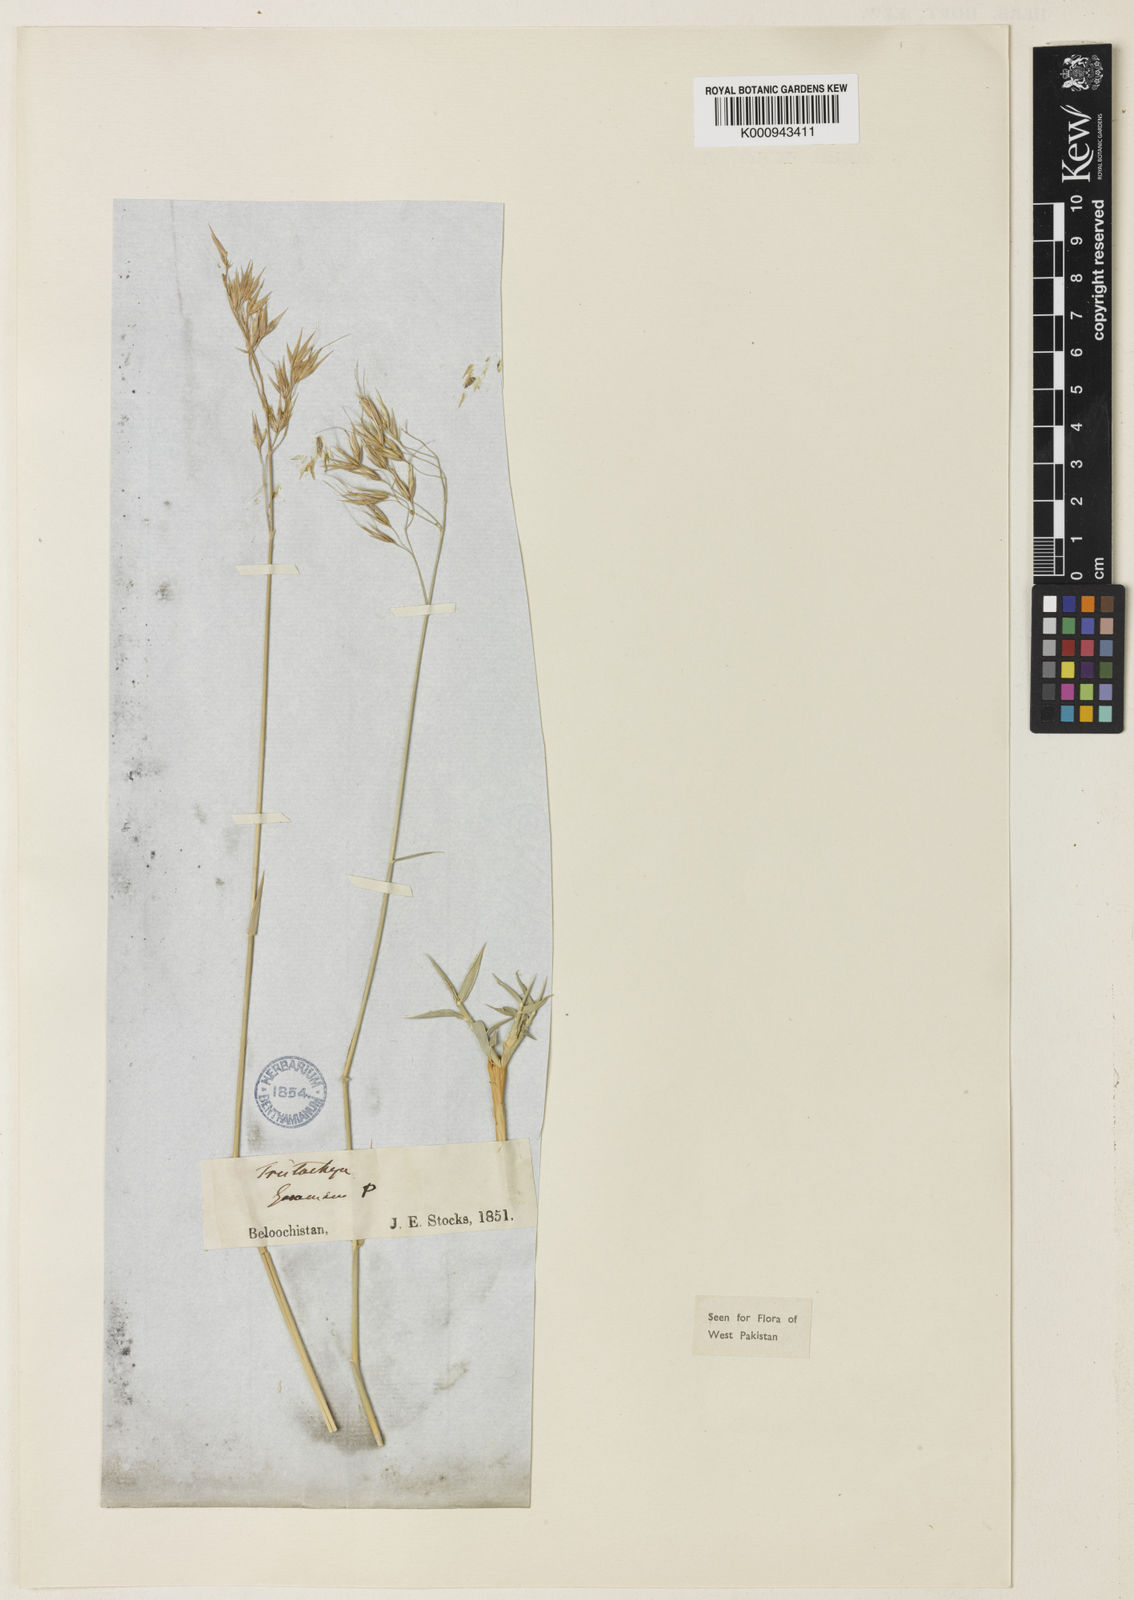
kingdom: Plantae
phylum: Tracheophyta
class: Liliopsida
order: Poales
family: Poaceae
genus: Danthoniopsis
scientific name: Danthoniopsis stocksii
